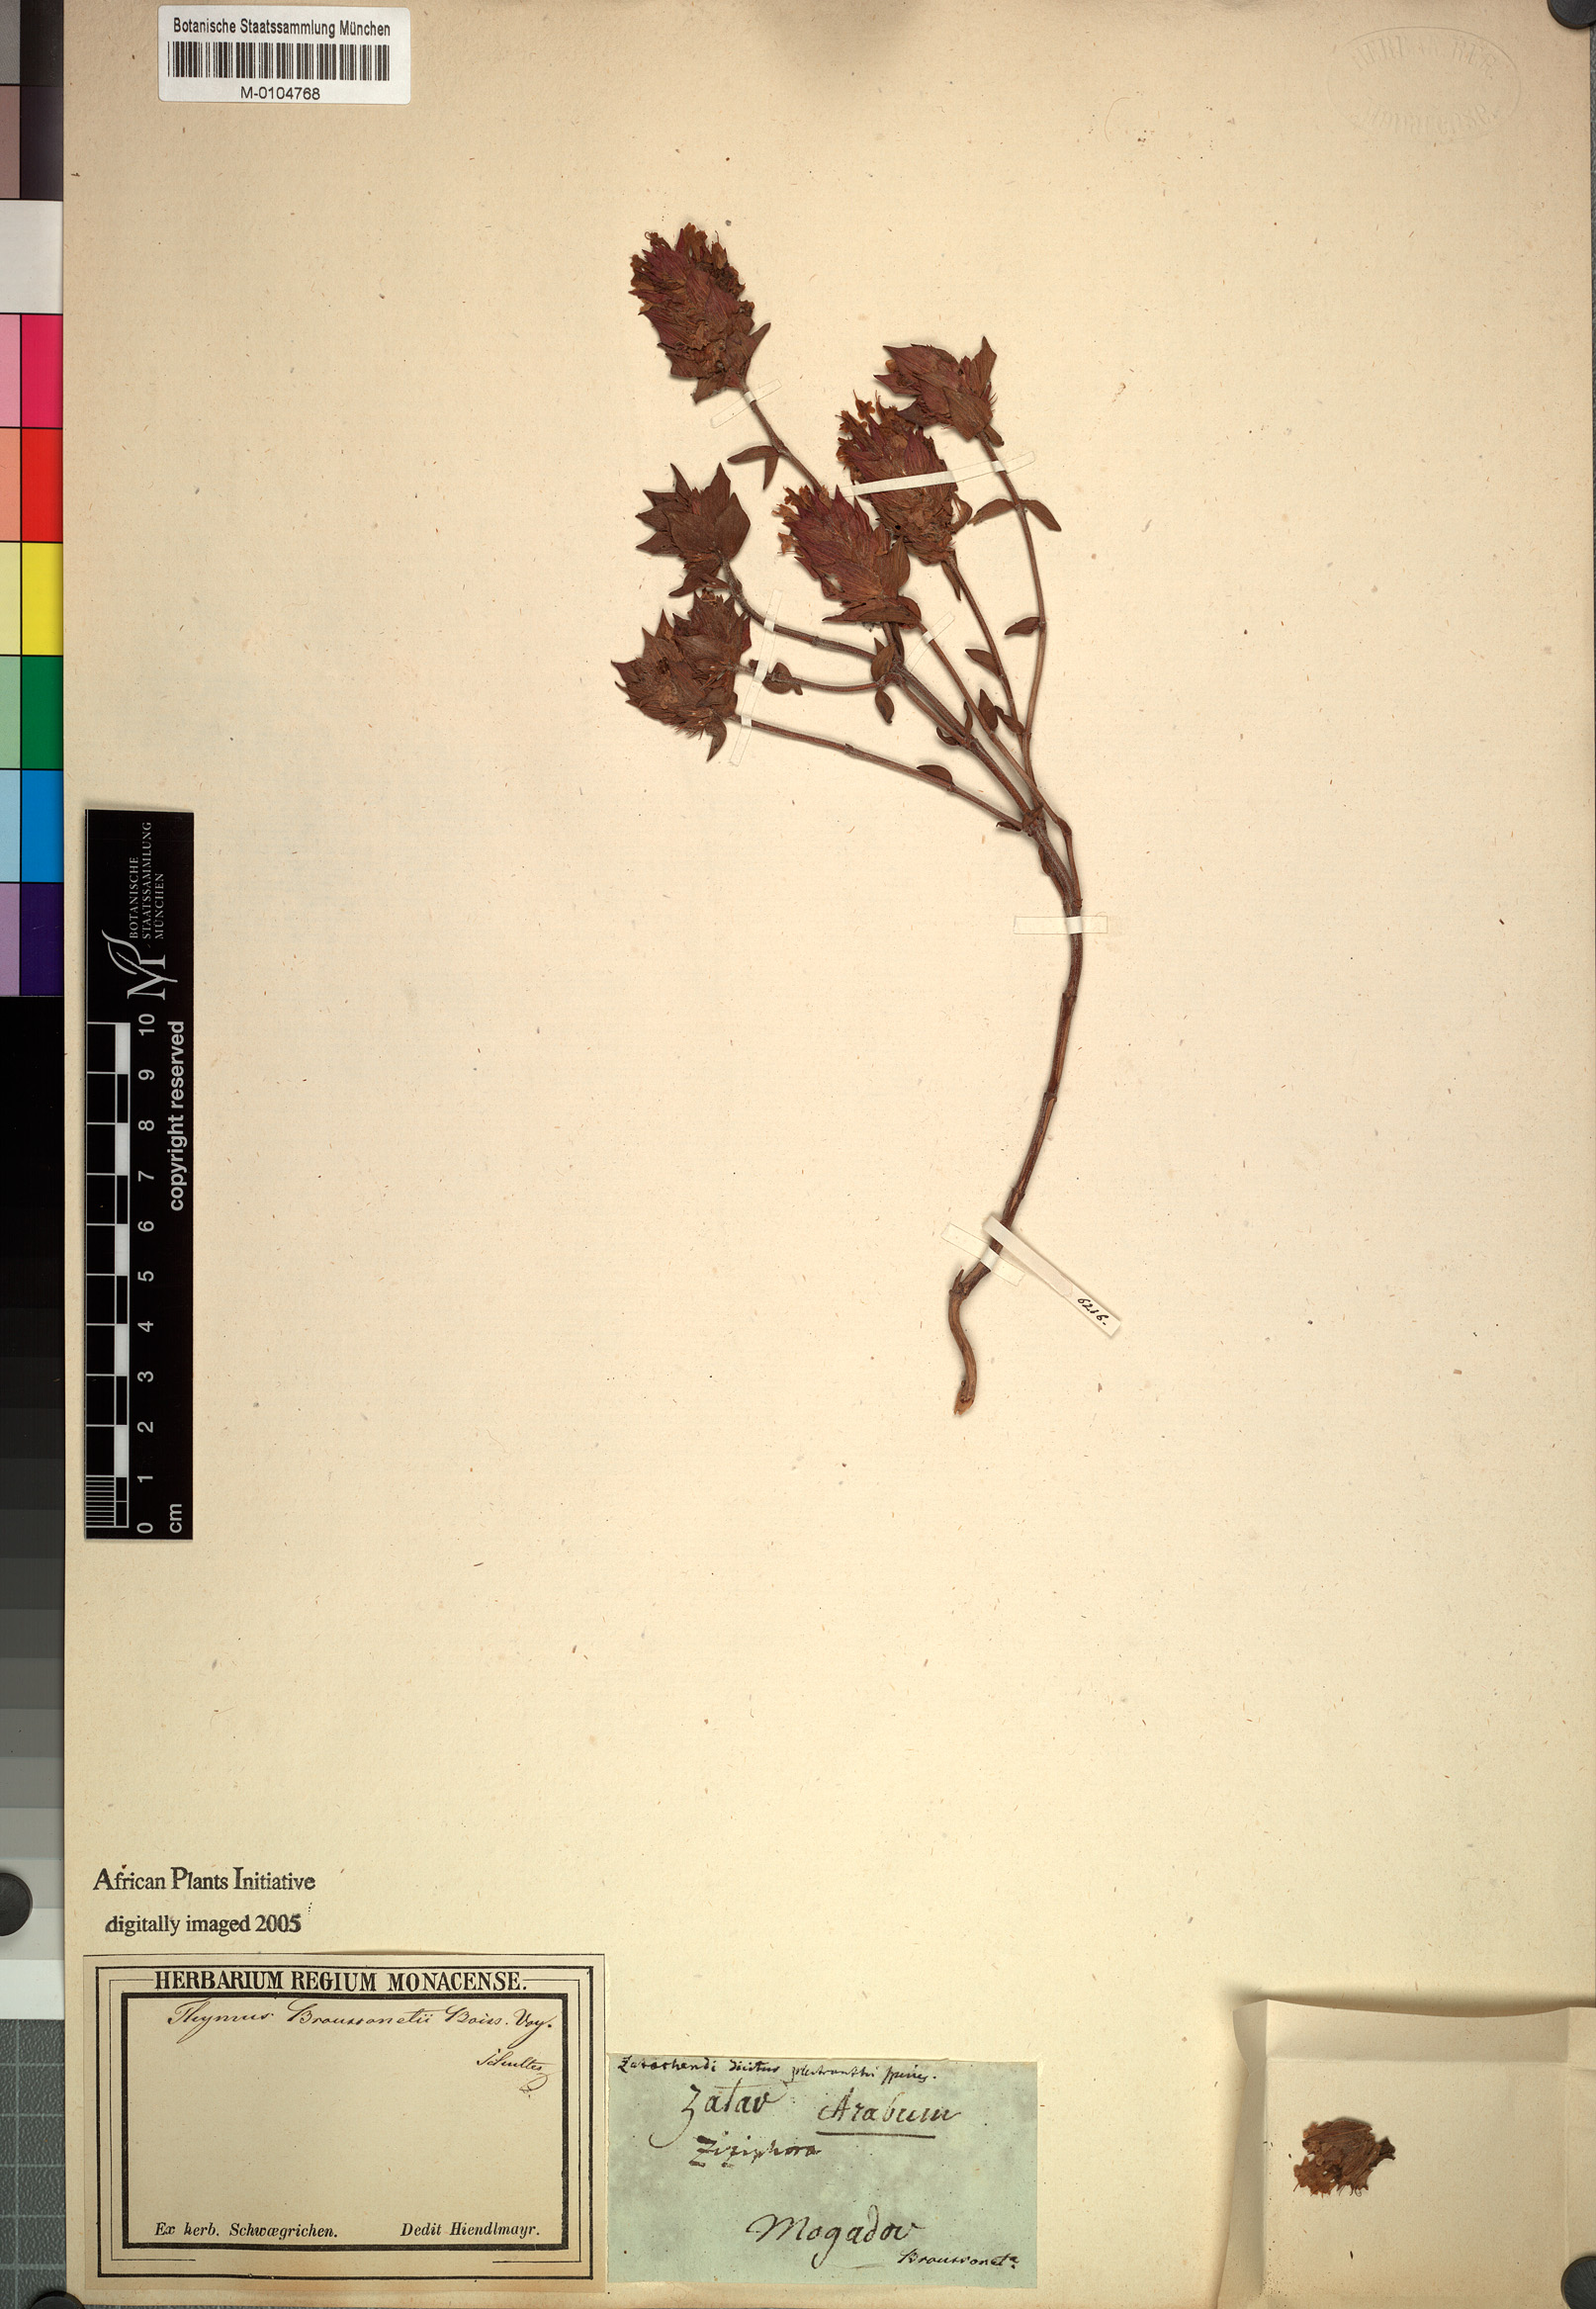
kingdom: Plantae
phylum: Tracheophyta
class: Magnoliopsida
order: Lamiales
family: Lamiaceae
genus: Thymus
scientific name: Thymus broussonetii
